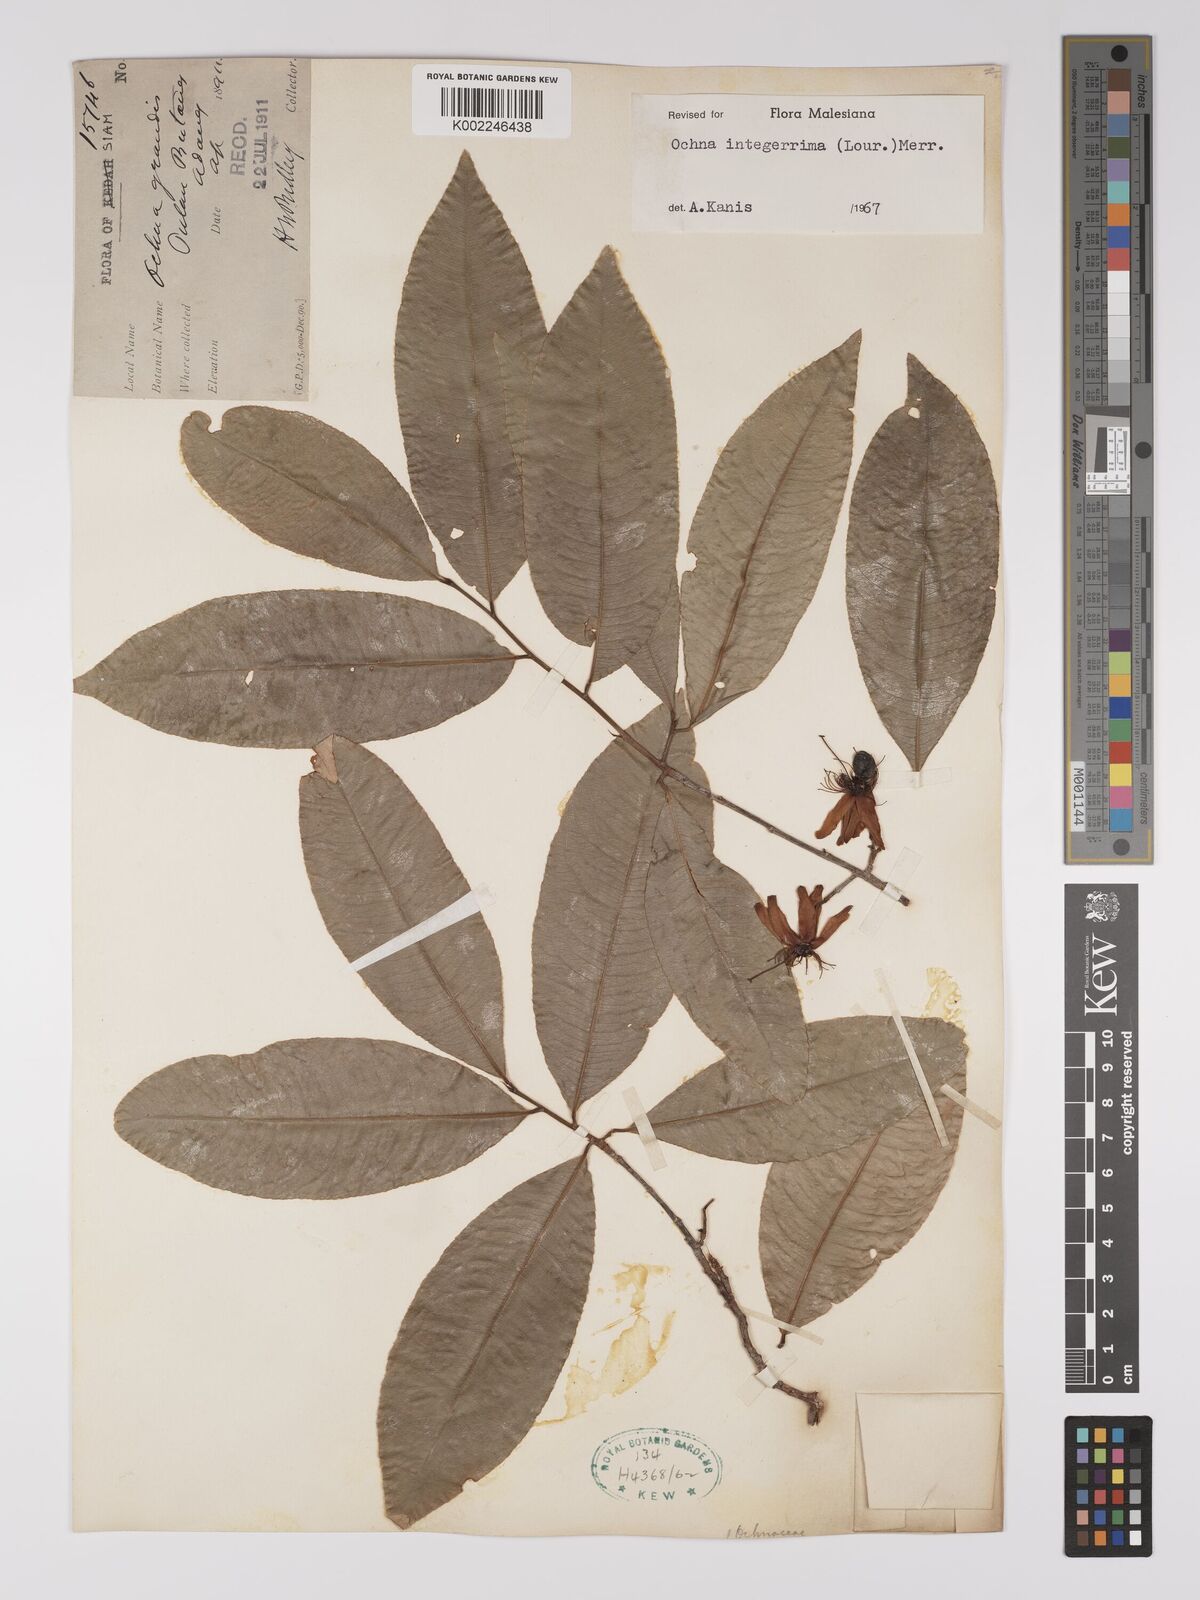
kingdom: Plantae
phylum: Tracheophyta
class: Magnoliopsida
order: Malpighiales
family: Ochnaceae
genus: Ochna
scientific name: Ochna integerrima
